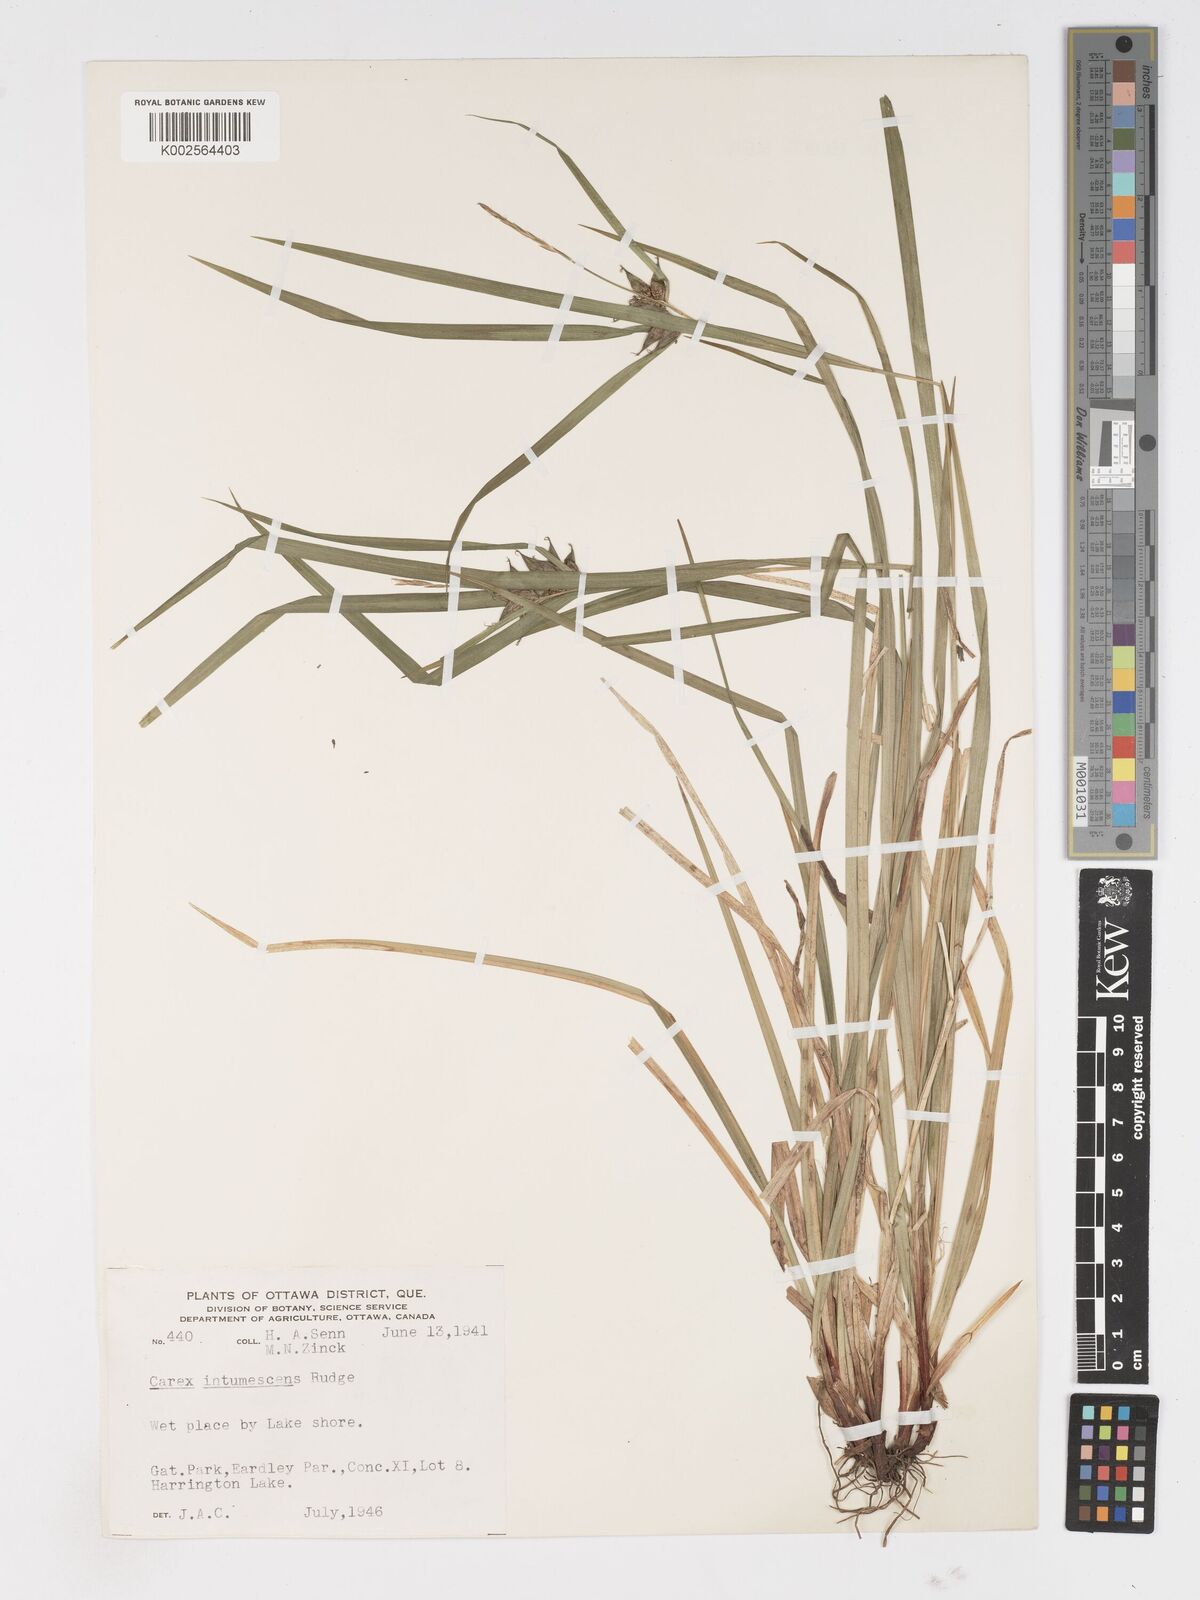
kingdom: Plantae
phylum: Tracheophyta
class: Liliopsida
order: Poales
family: Cyperaceae
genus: Carex
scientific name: Carex intumescens
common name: Greater bladder sedge
